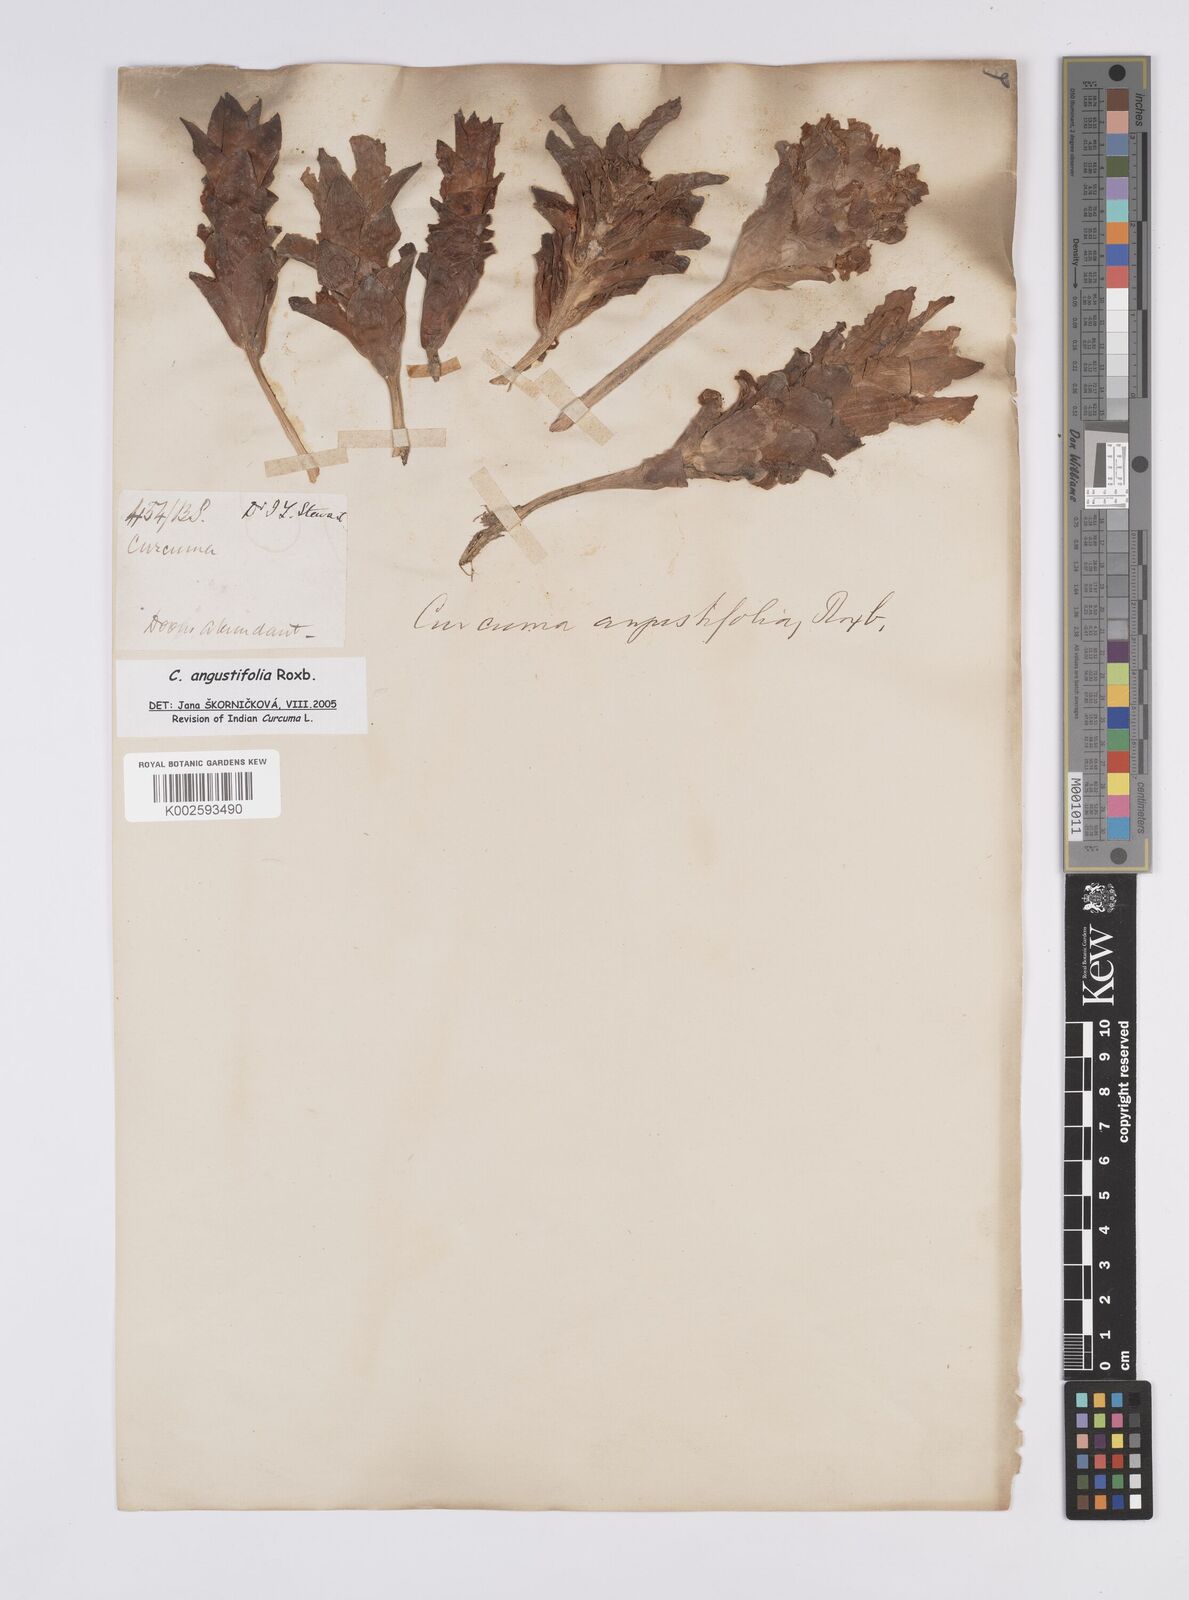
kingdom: Plantae
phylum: Tracheophyta
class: Liliopsida
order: Zingiberales
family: Zingiberaceae
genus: Curcuma
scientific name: Curcuma angustifolia
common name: East indian arrowroot
